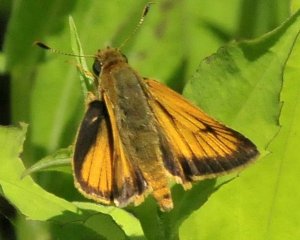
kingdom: Animalia
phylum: Arthropoda
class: Insecta
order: Lepidoptera
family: Hesperiidae
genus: Atrytone
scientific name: Atrytone delaware
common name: Delaware Skipper
